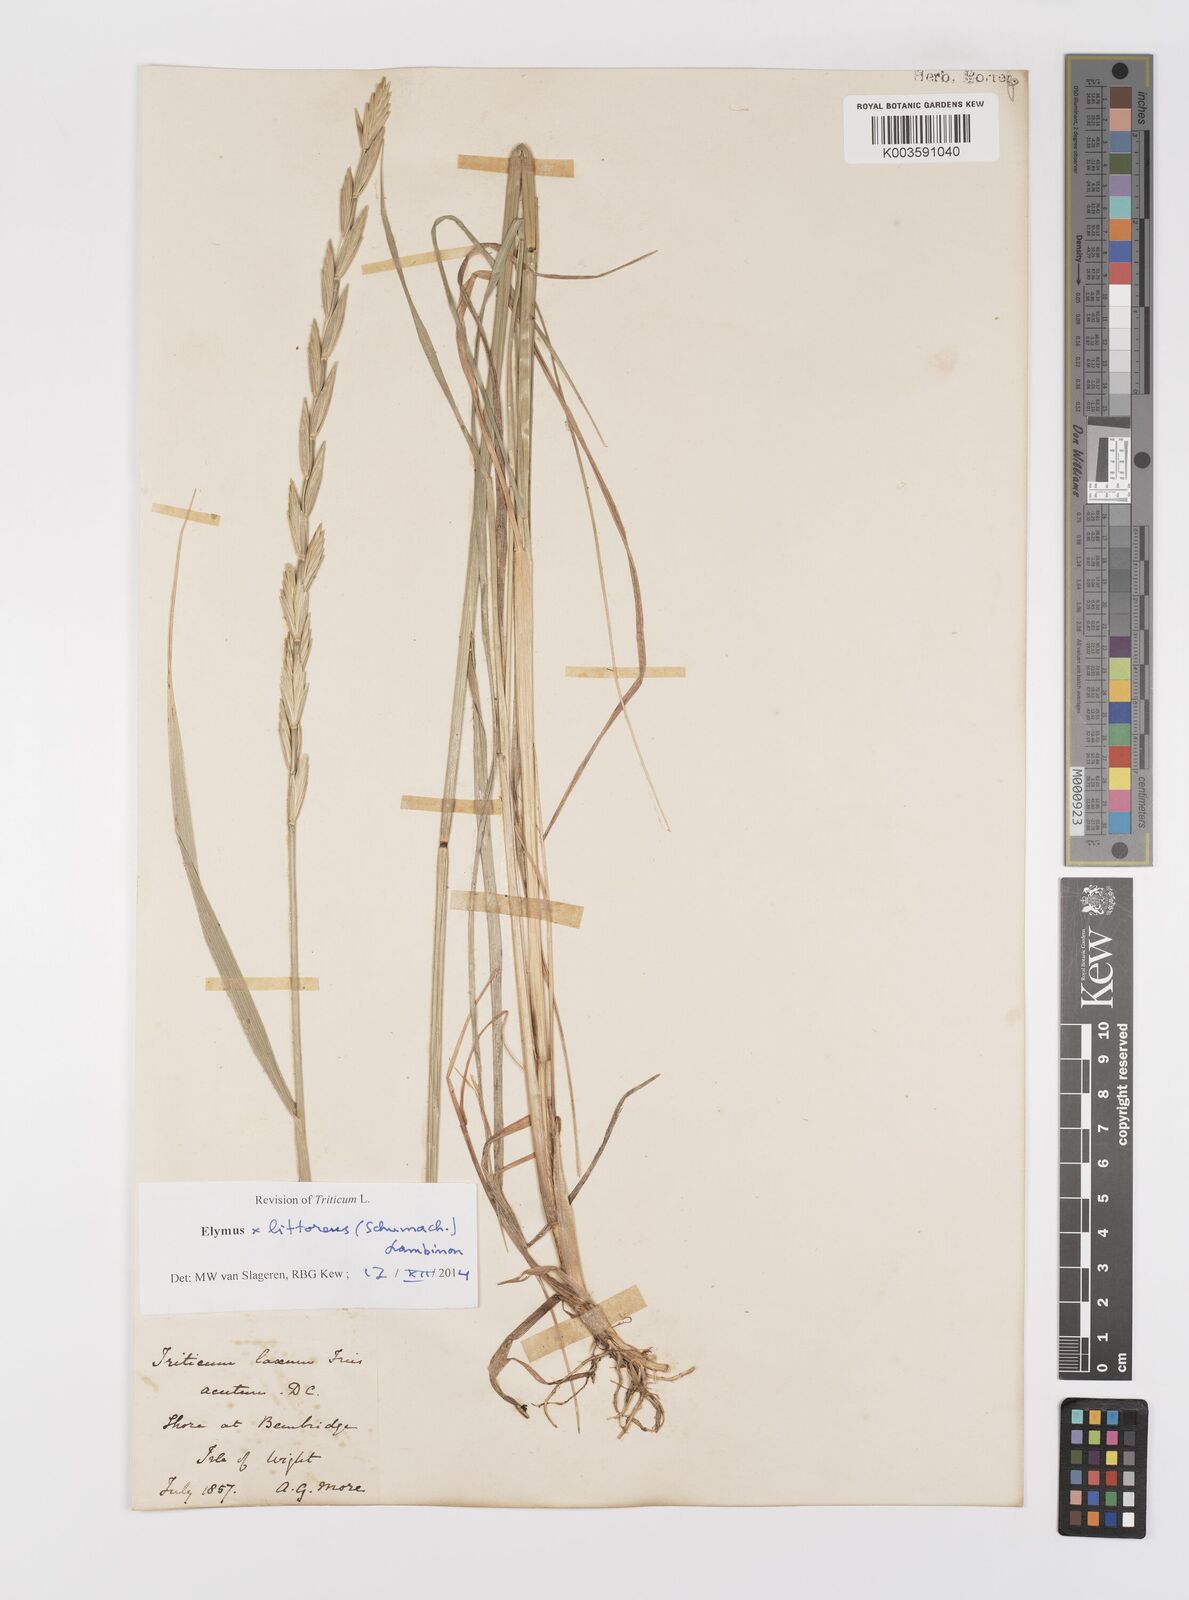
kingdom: Plantae
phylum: Tracheophyta
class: Liliopsida
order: Poales
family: Poaceae
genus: Leymus
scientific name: Leymus
